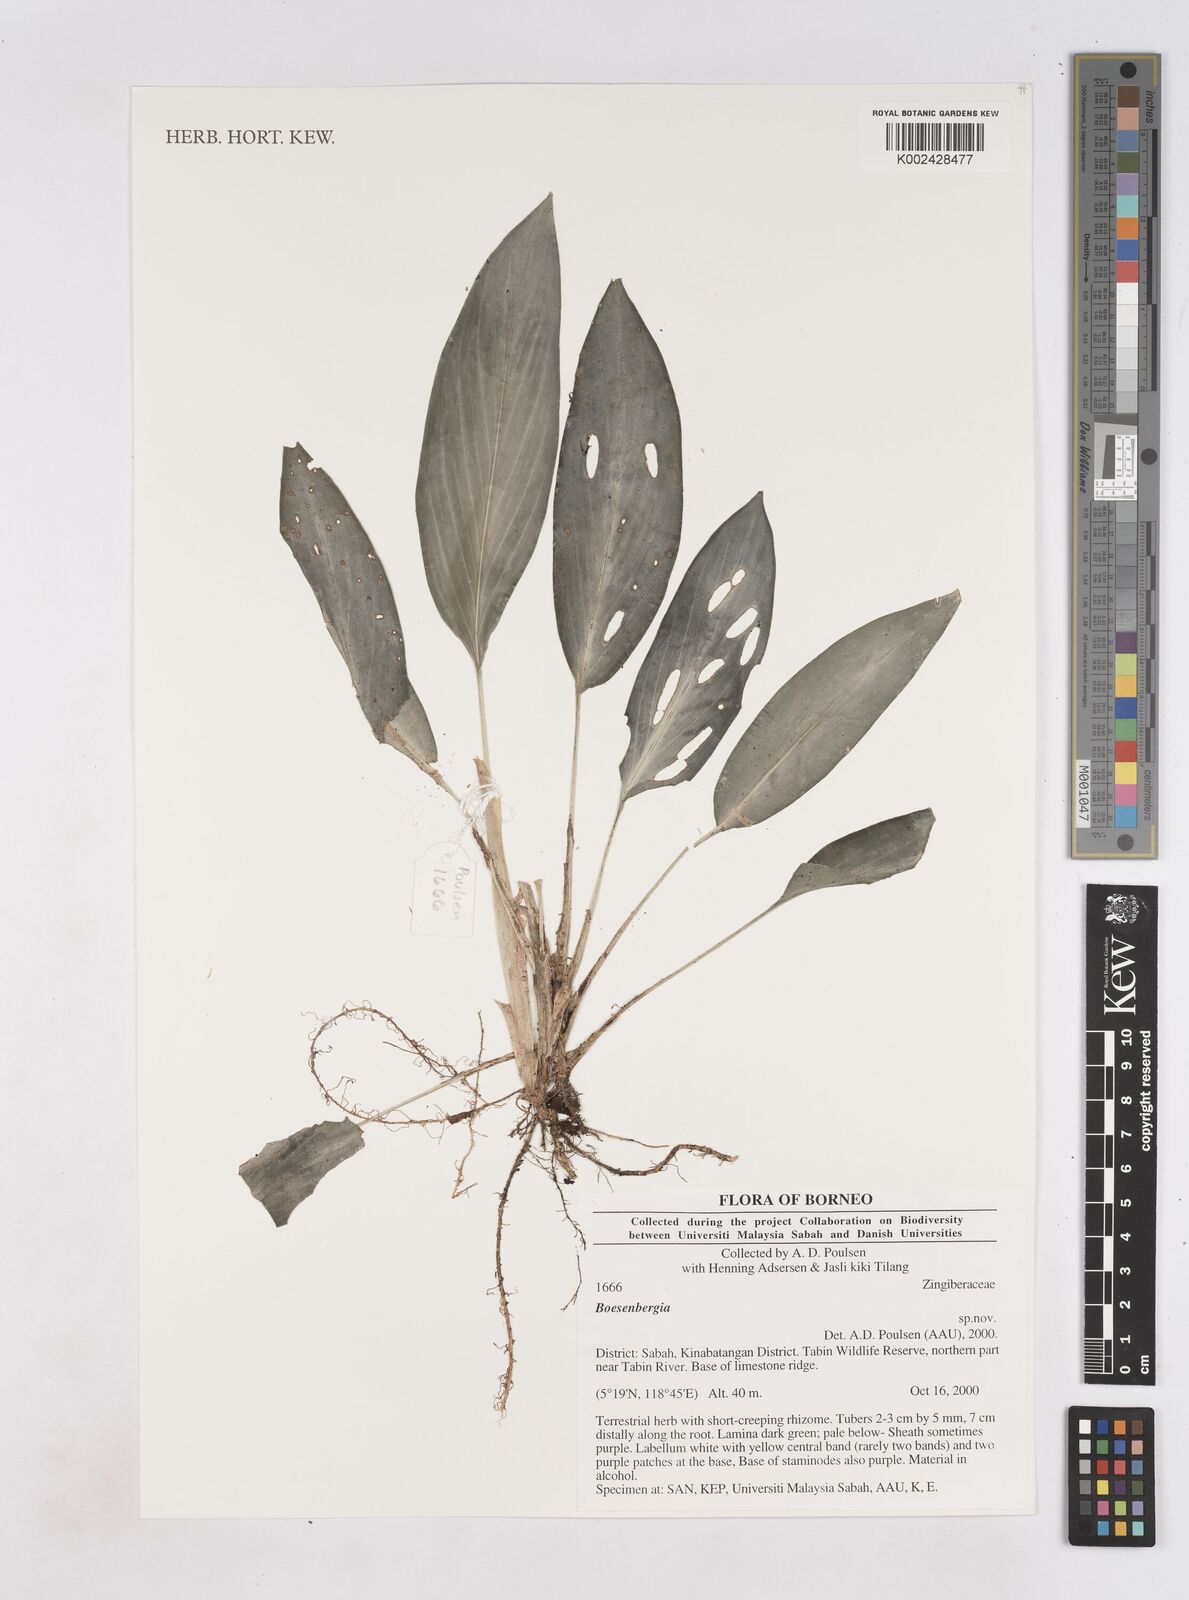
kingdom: Plantae
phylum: Tracheophyta
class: Liliopsida
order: Zingiberales
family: Zingiberaceae
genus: Boesenbergia
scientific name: Boesenbergia
